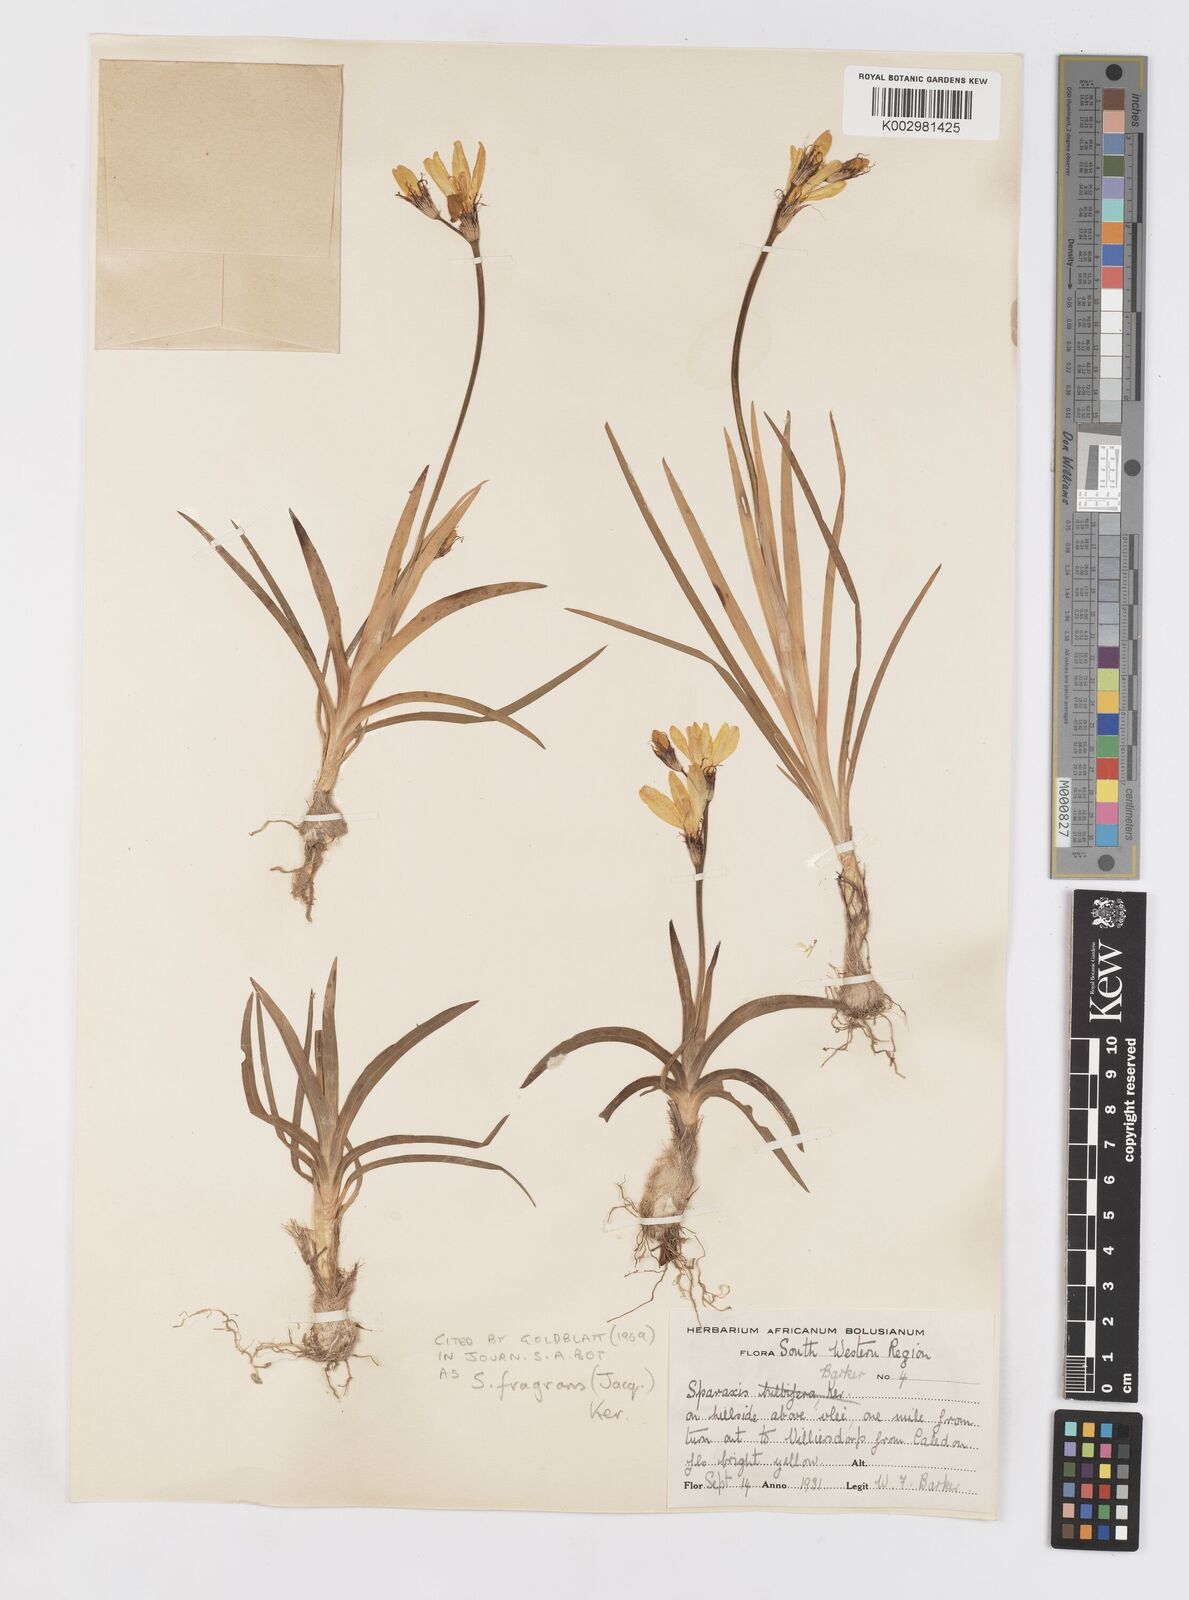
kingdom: Plantae
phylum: Tracheophyta
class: Liliopsida
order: Asparagales
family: Iridaceae
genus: Sparaxis
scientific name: Sparaxis fragrans
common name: Fragrant wandflower
